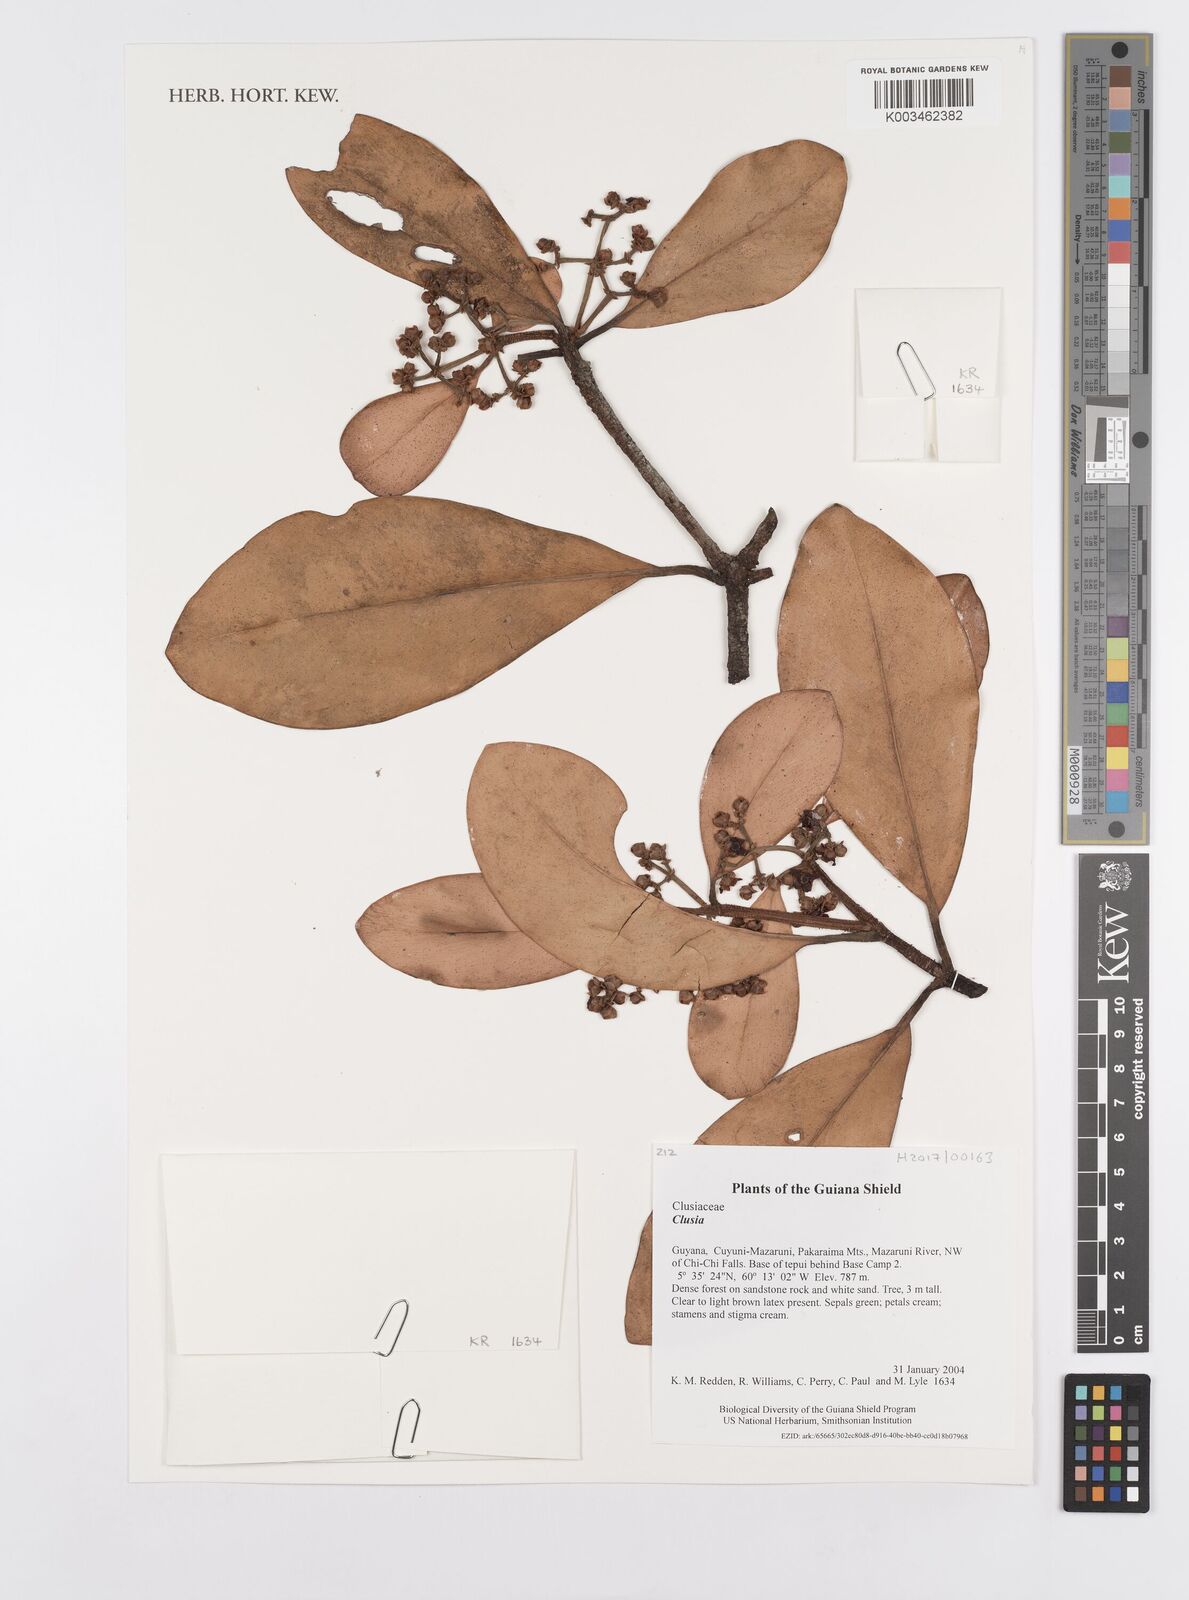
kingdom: Plantae
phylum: Tracheophyta
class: Magnoliopsida
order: Malpighiales
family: Clusiaceae
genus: Clusia
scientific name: Clusia
